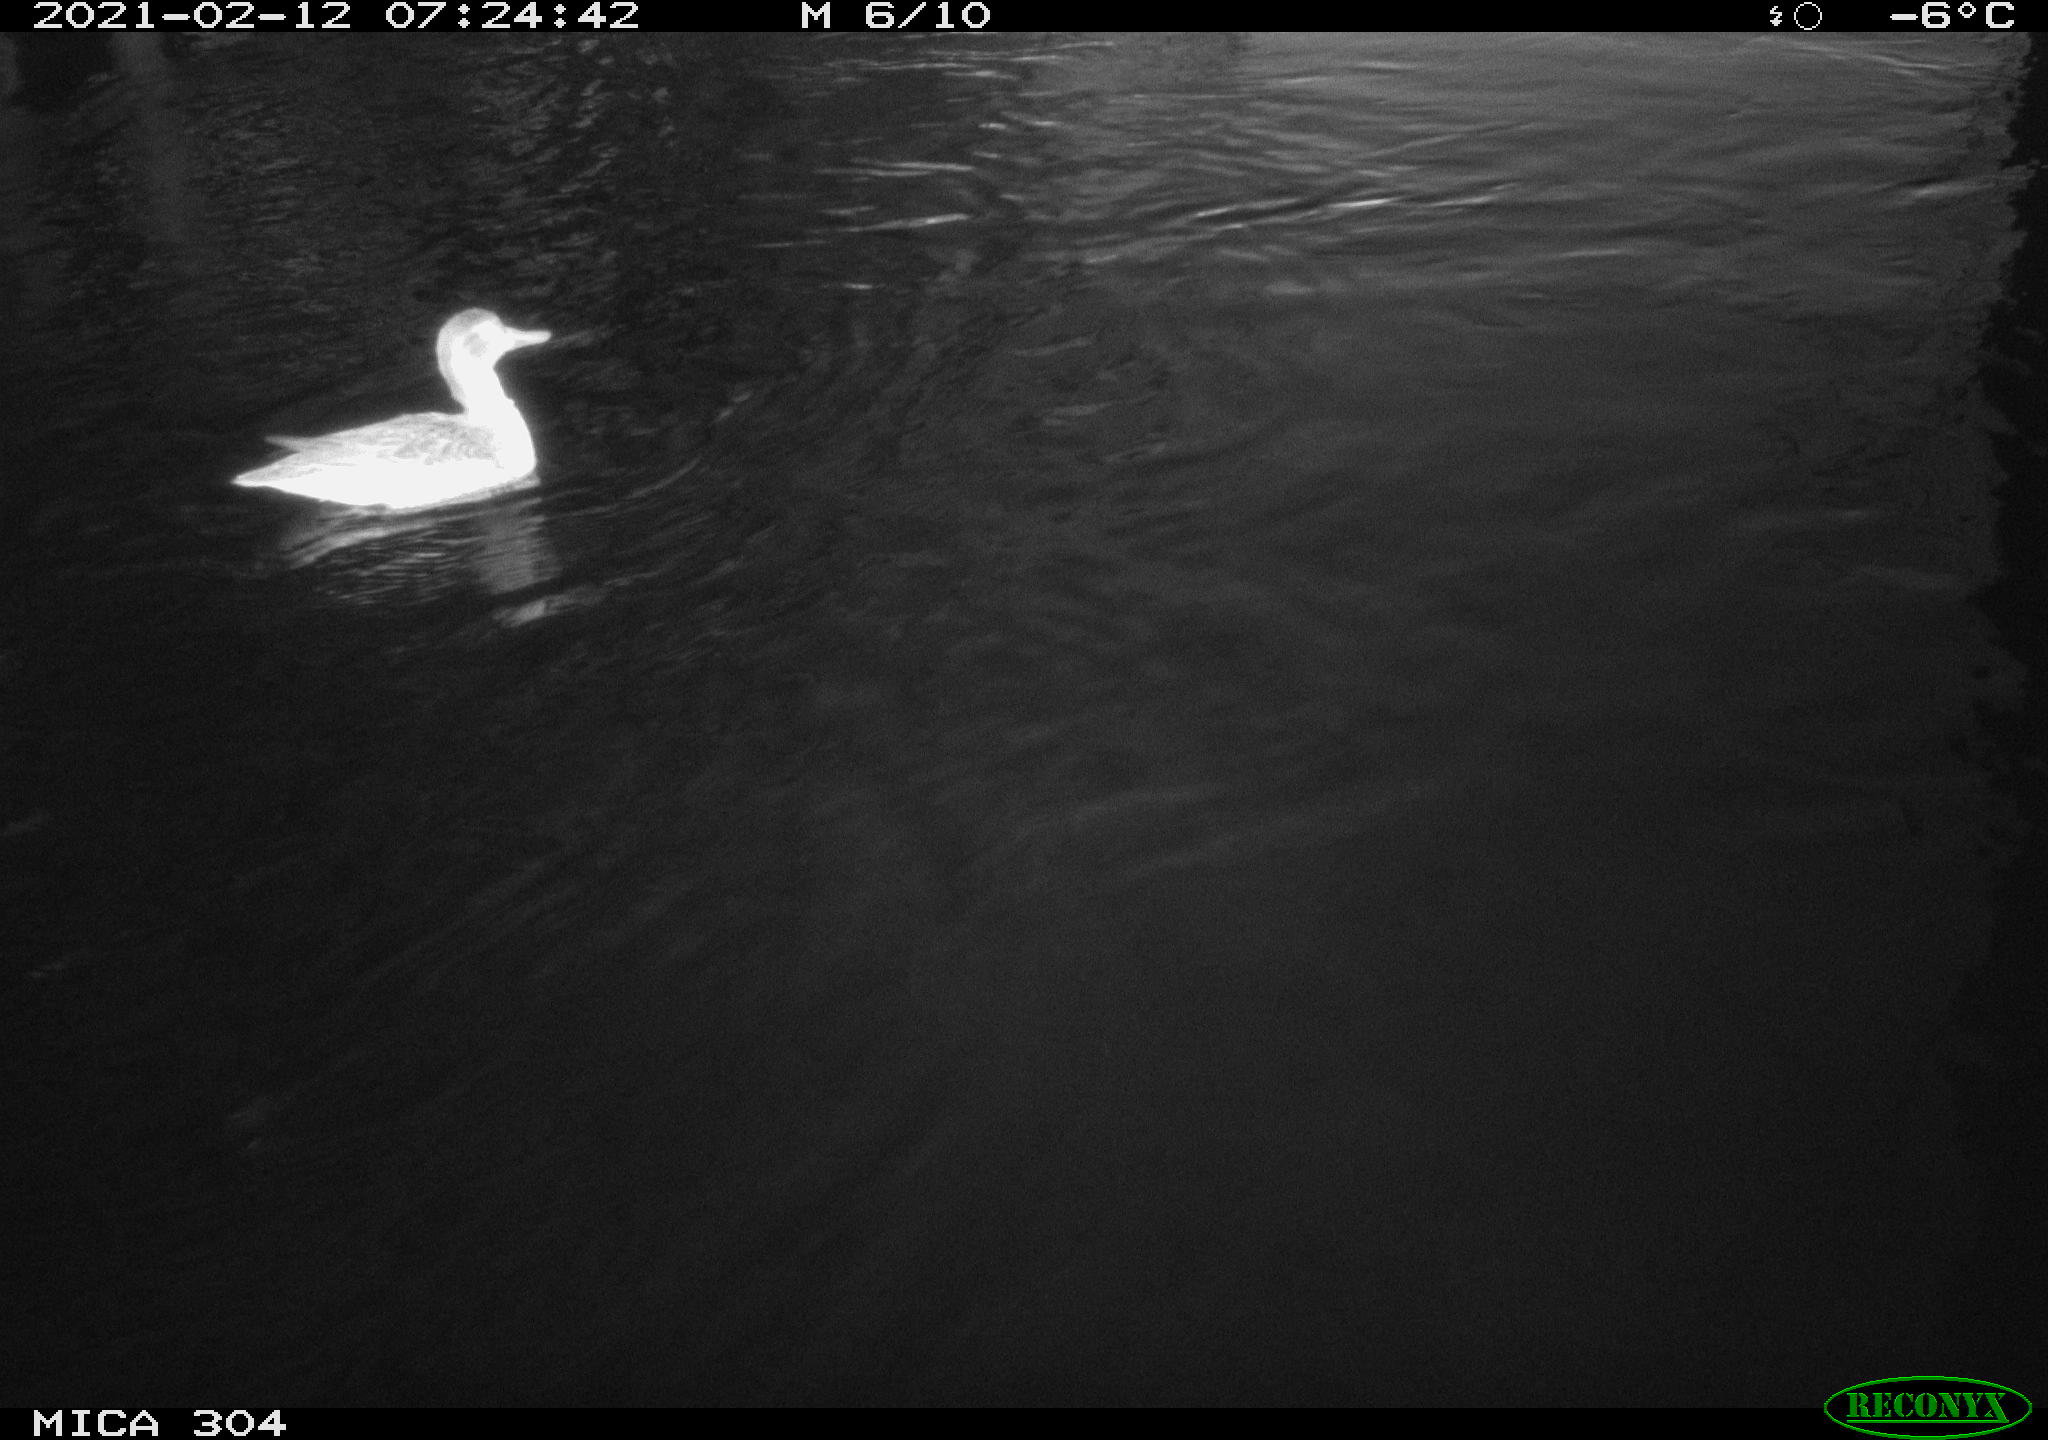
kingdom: Animalia
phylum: Chordata
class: Aves
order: Anseriformes
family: Anatidae
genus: Mareca
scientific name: Mareca strepera
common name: Gadwall
